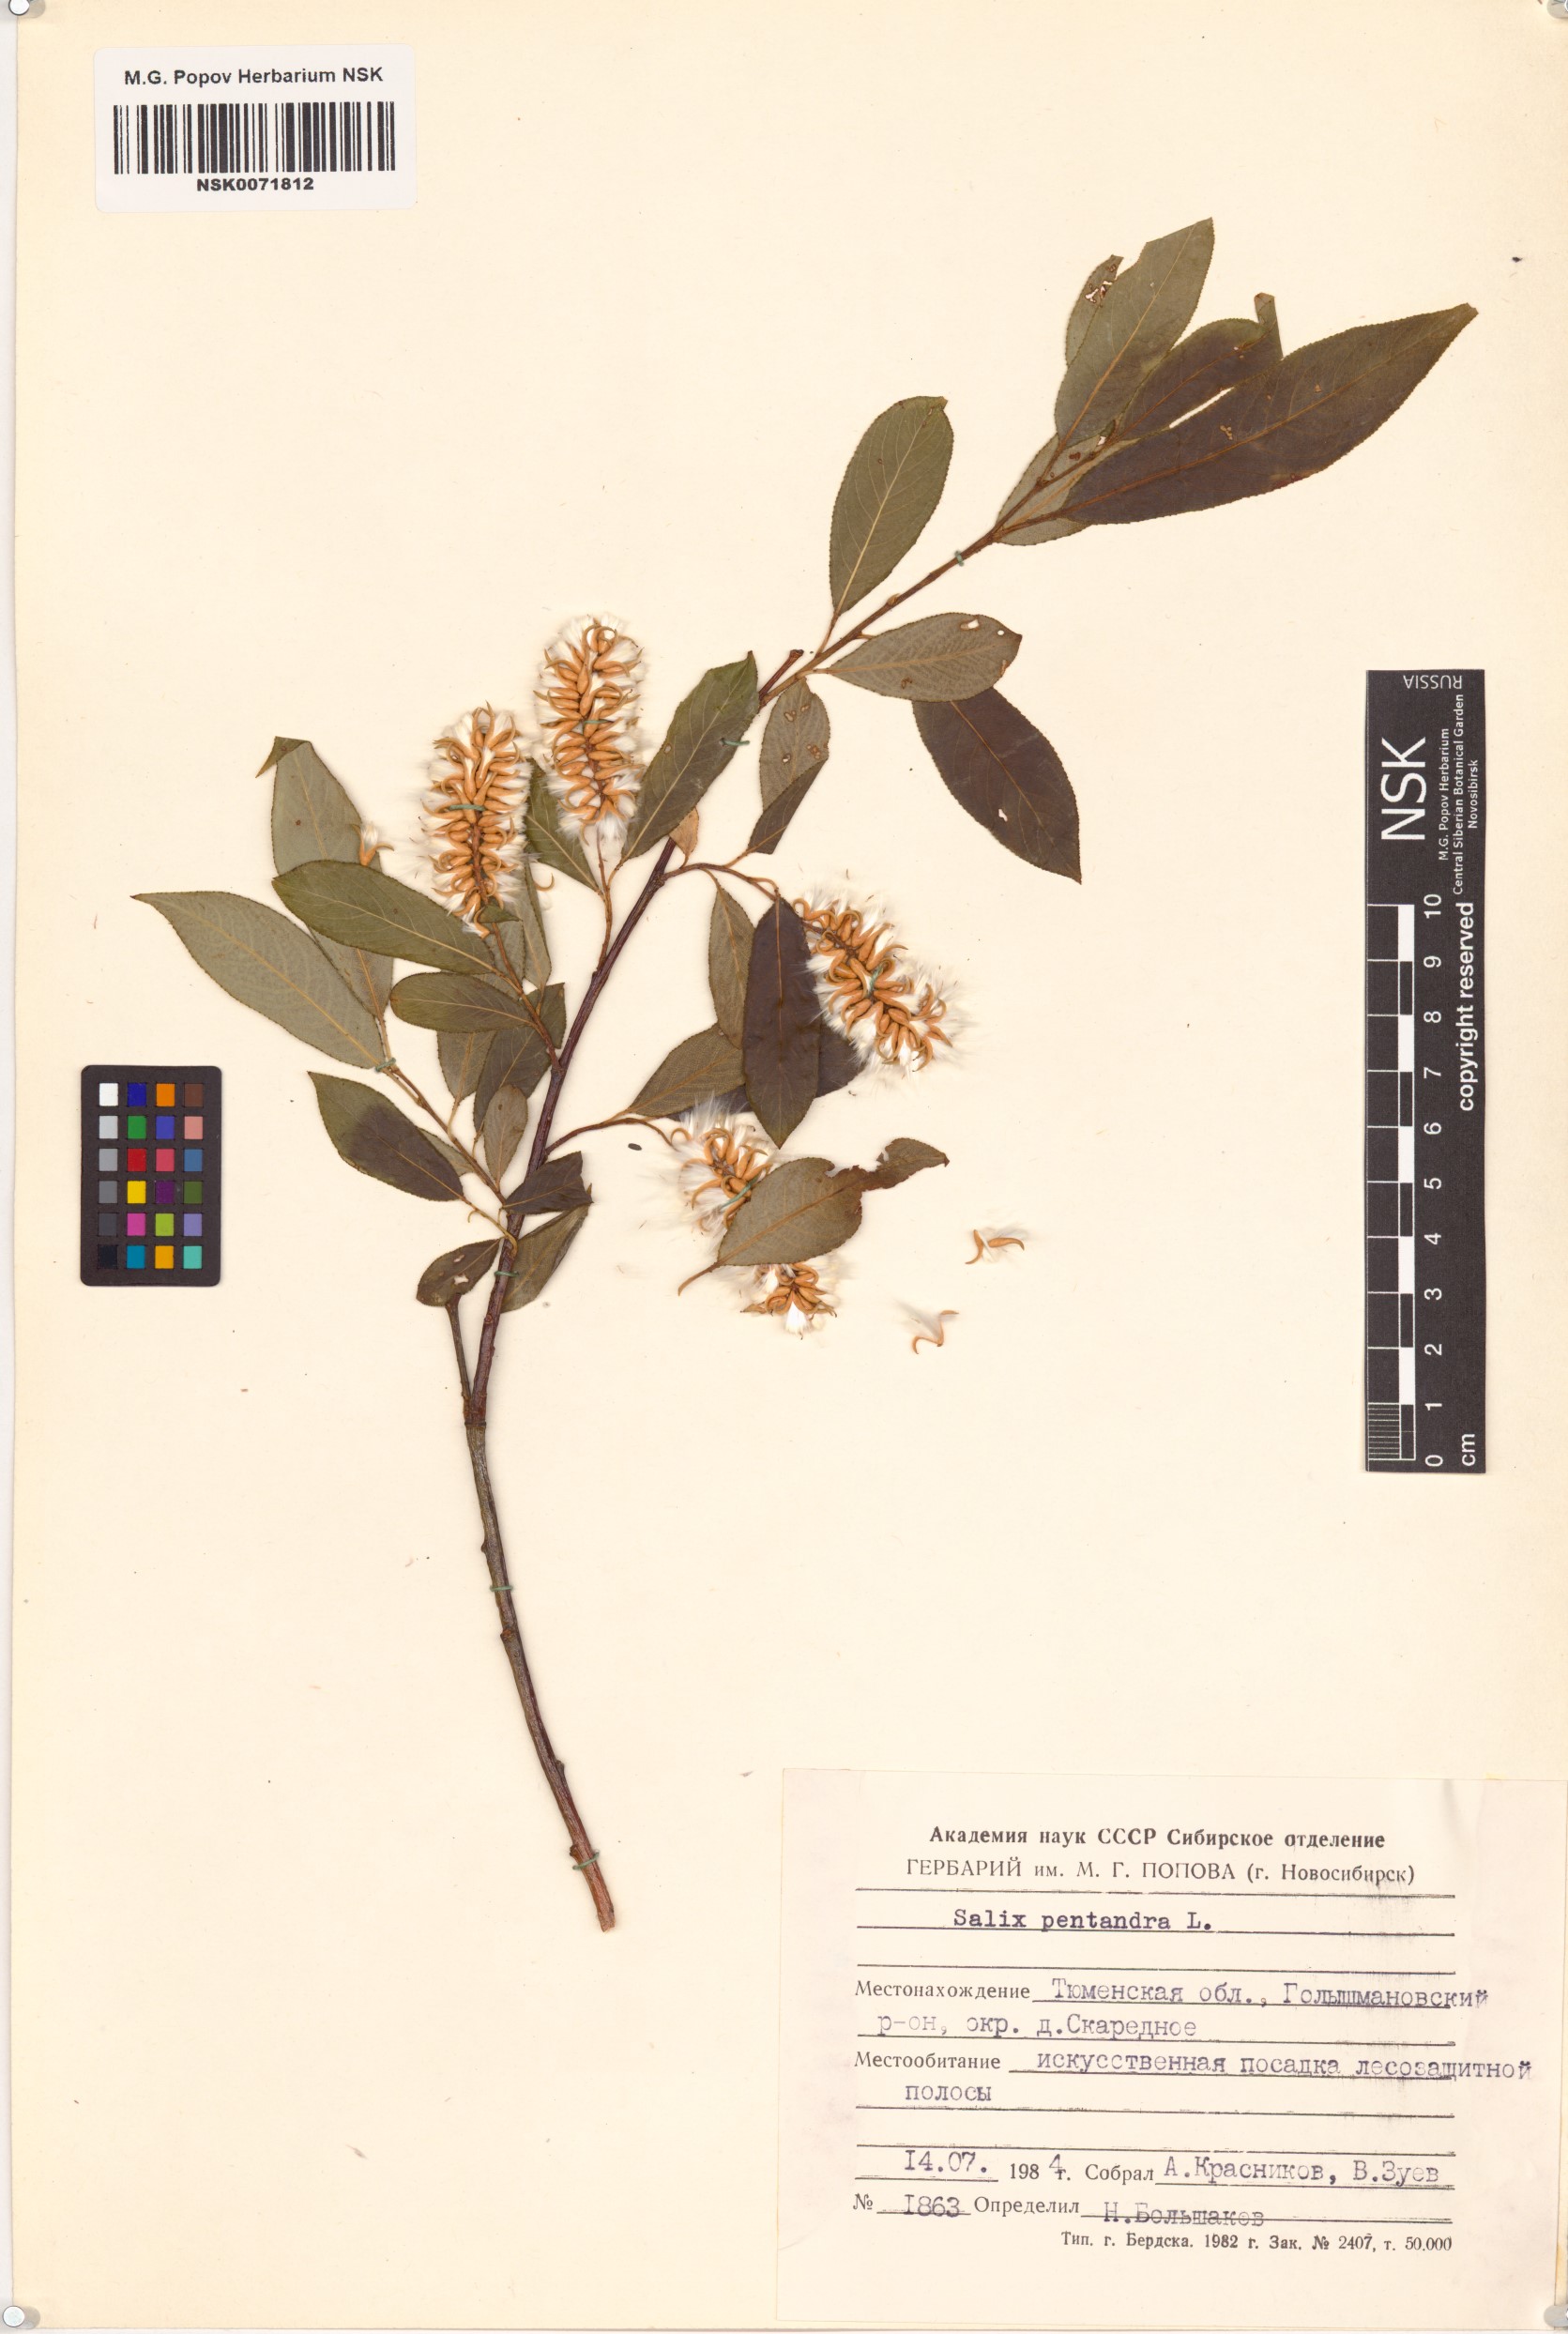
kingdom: Plantae
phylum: Tracheophyta
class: Magnoliopsida
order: Malpighiales
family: Salicaceae
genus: Salix
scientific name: Salix pentandra
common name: Bay willow
